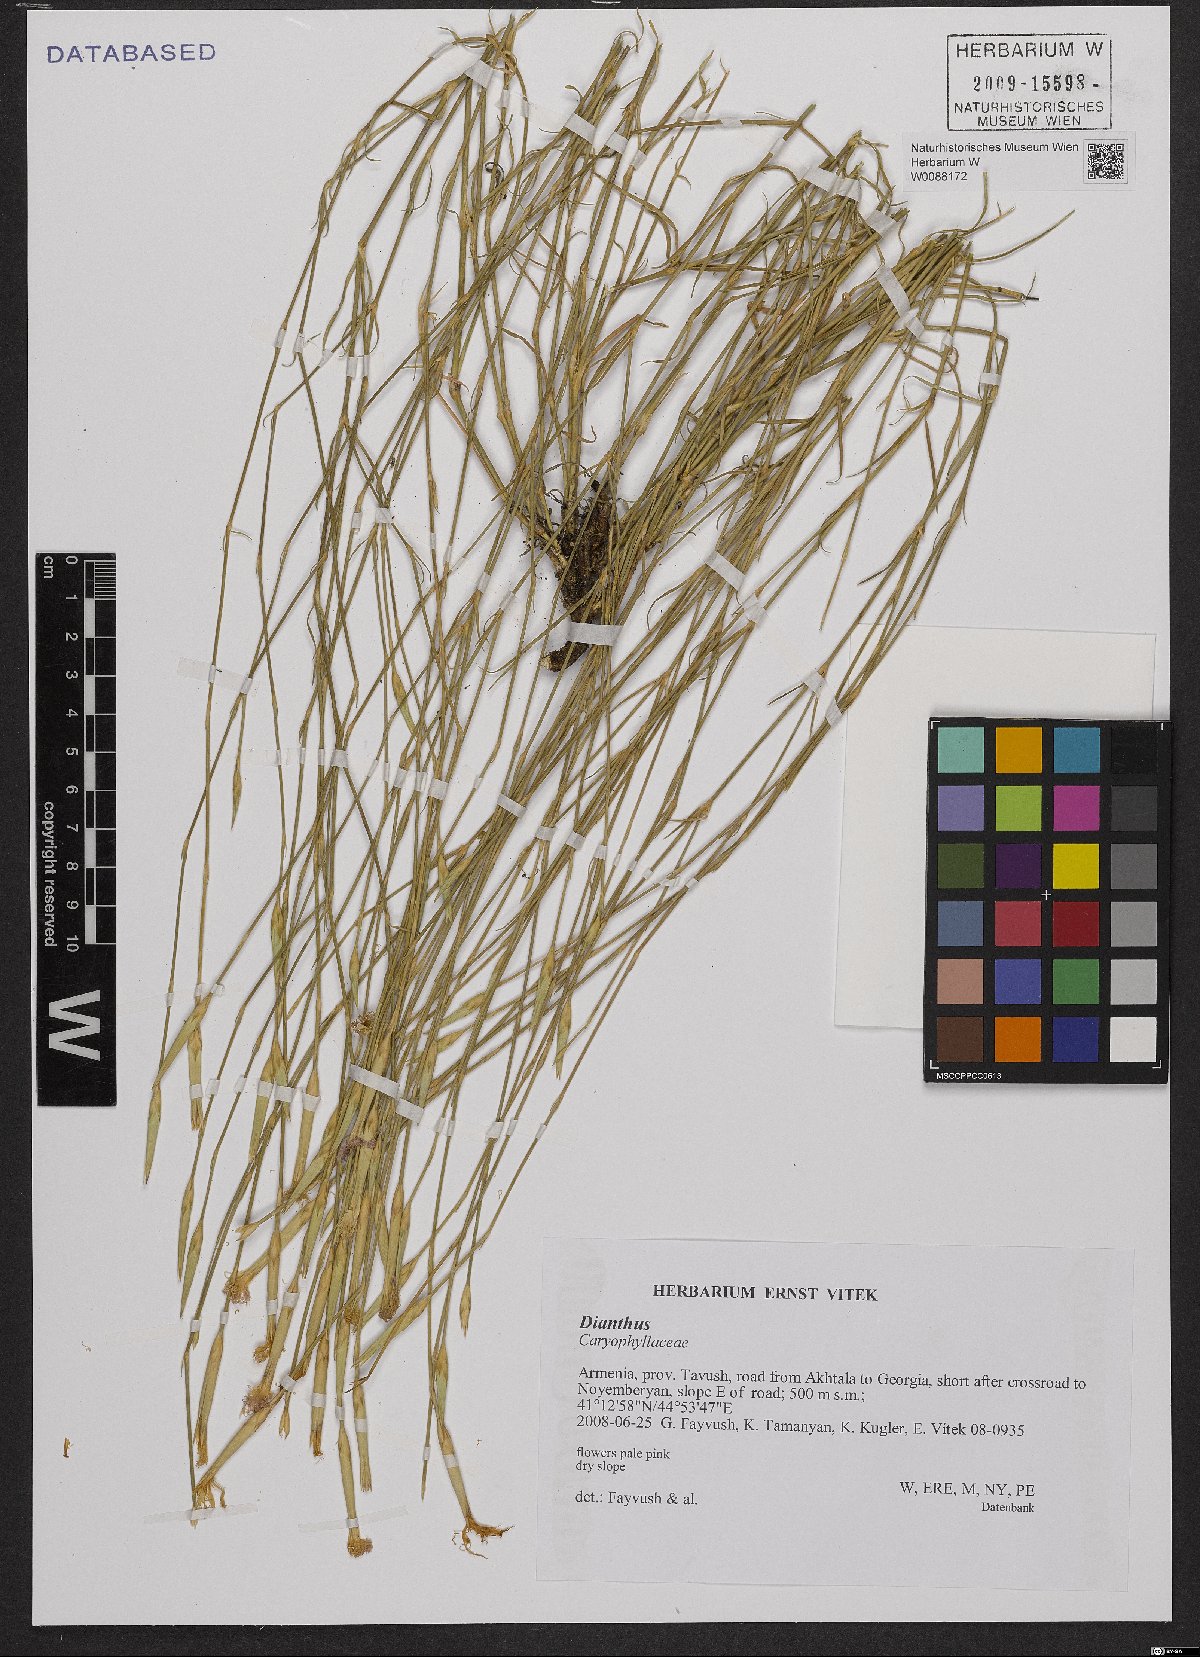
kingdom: Plantae
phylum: Tracheophyta
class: Magnoliopsida
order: Caryophyllales
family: Caryophyllaceae
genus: Dianthus
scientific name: Dianthus
